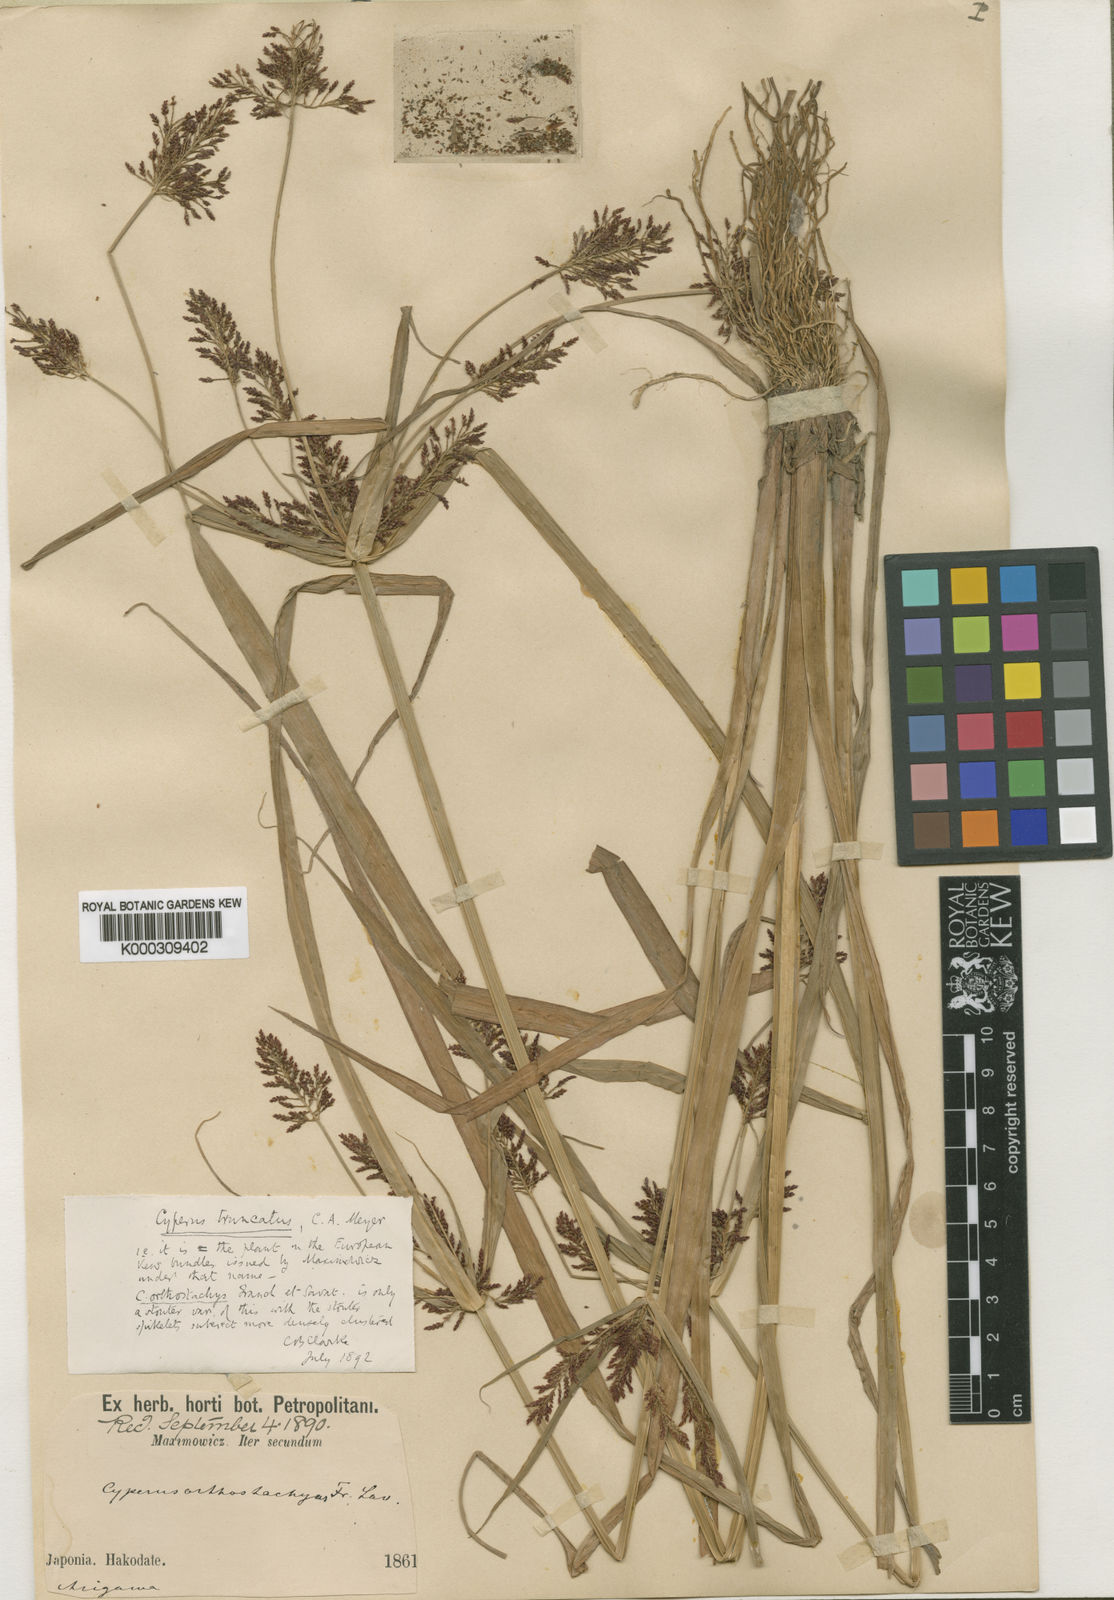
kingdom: Plantae
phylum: Tracheophyta
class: Liliopsida
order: Poales
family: Cyperaceae
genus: Cyperus
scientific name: Cyperus orthostachyus
